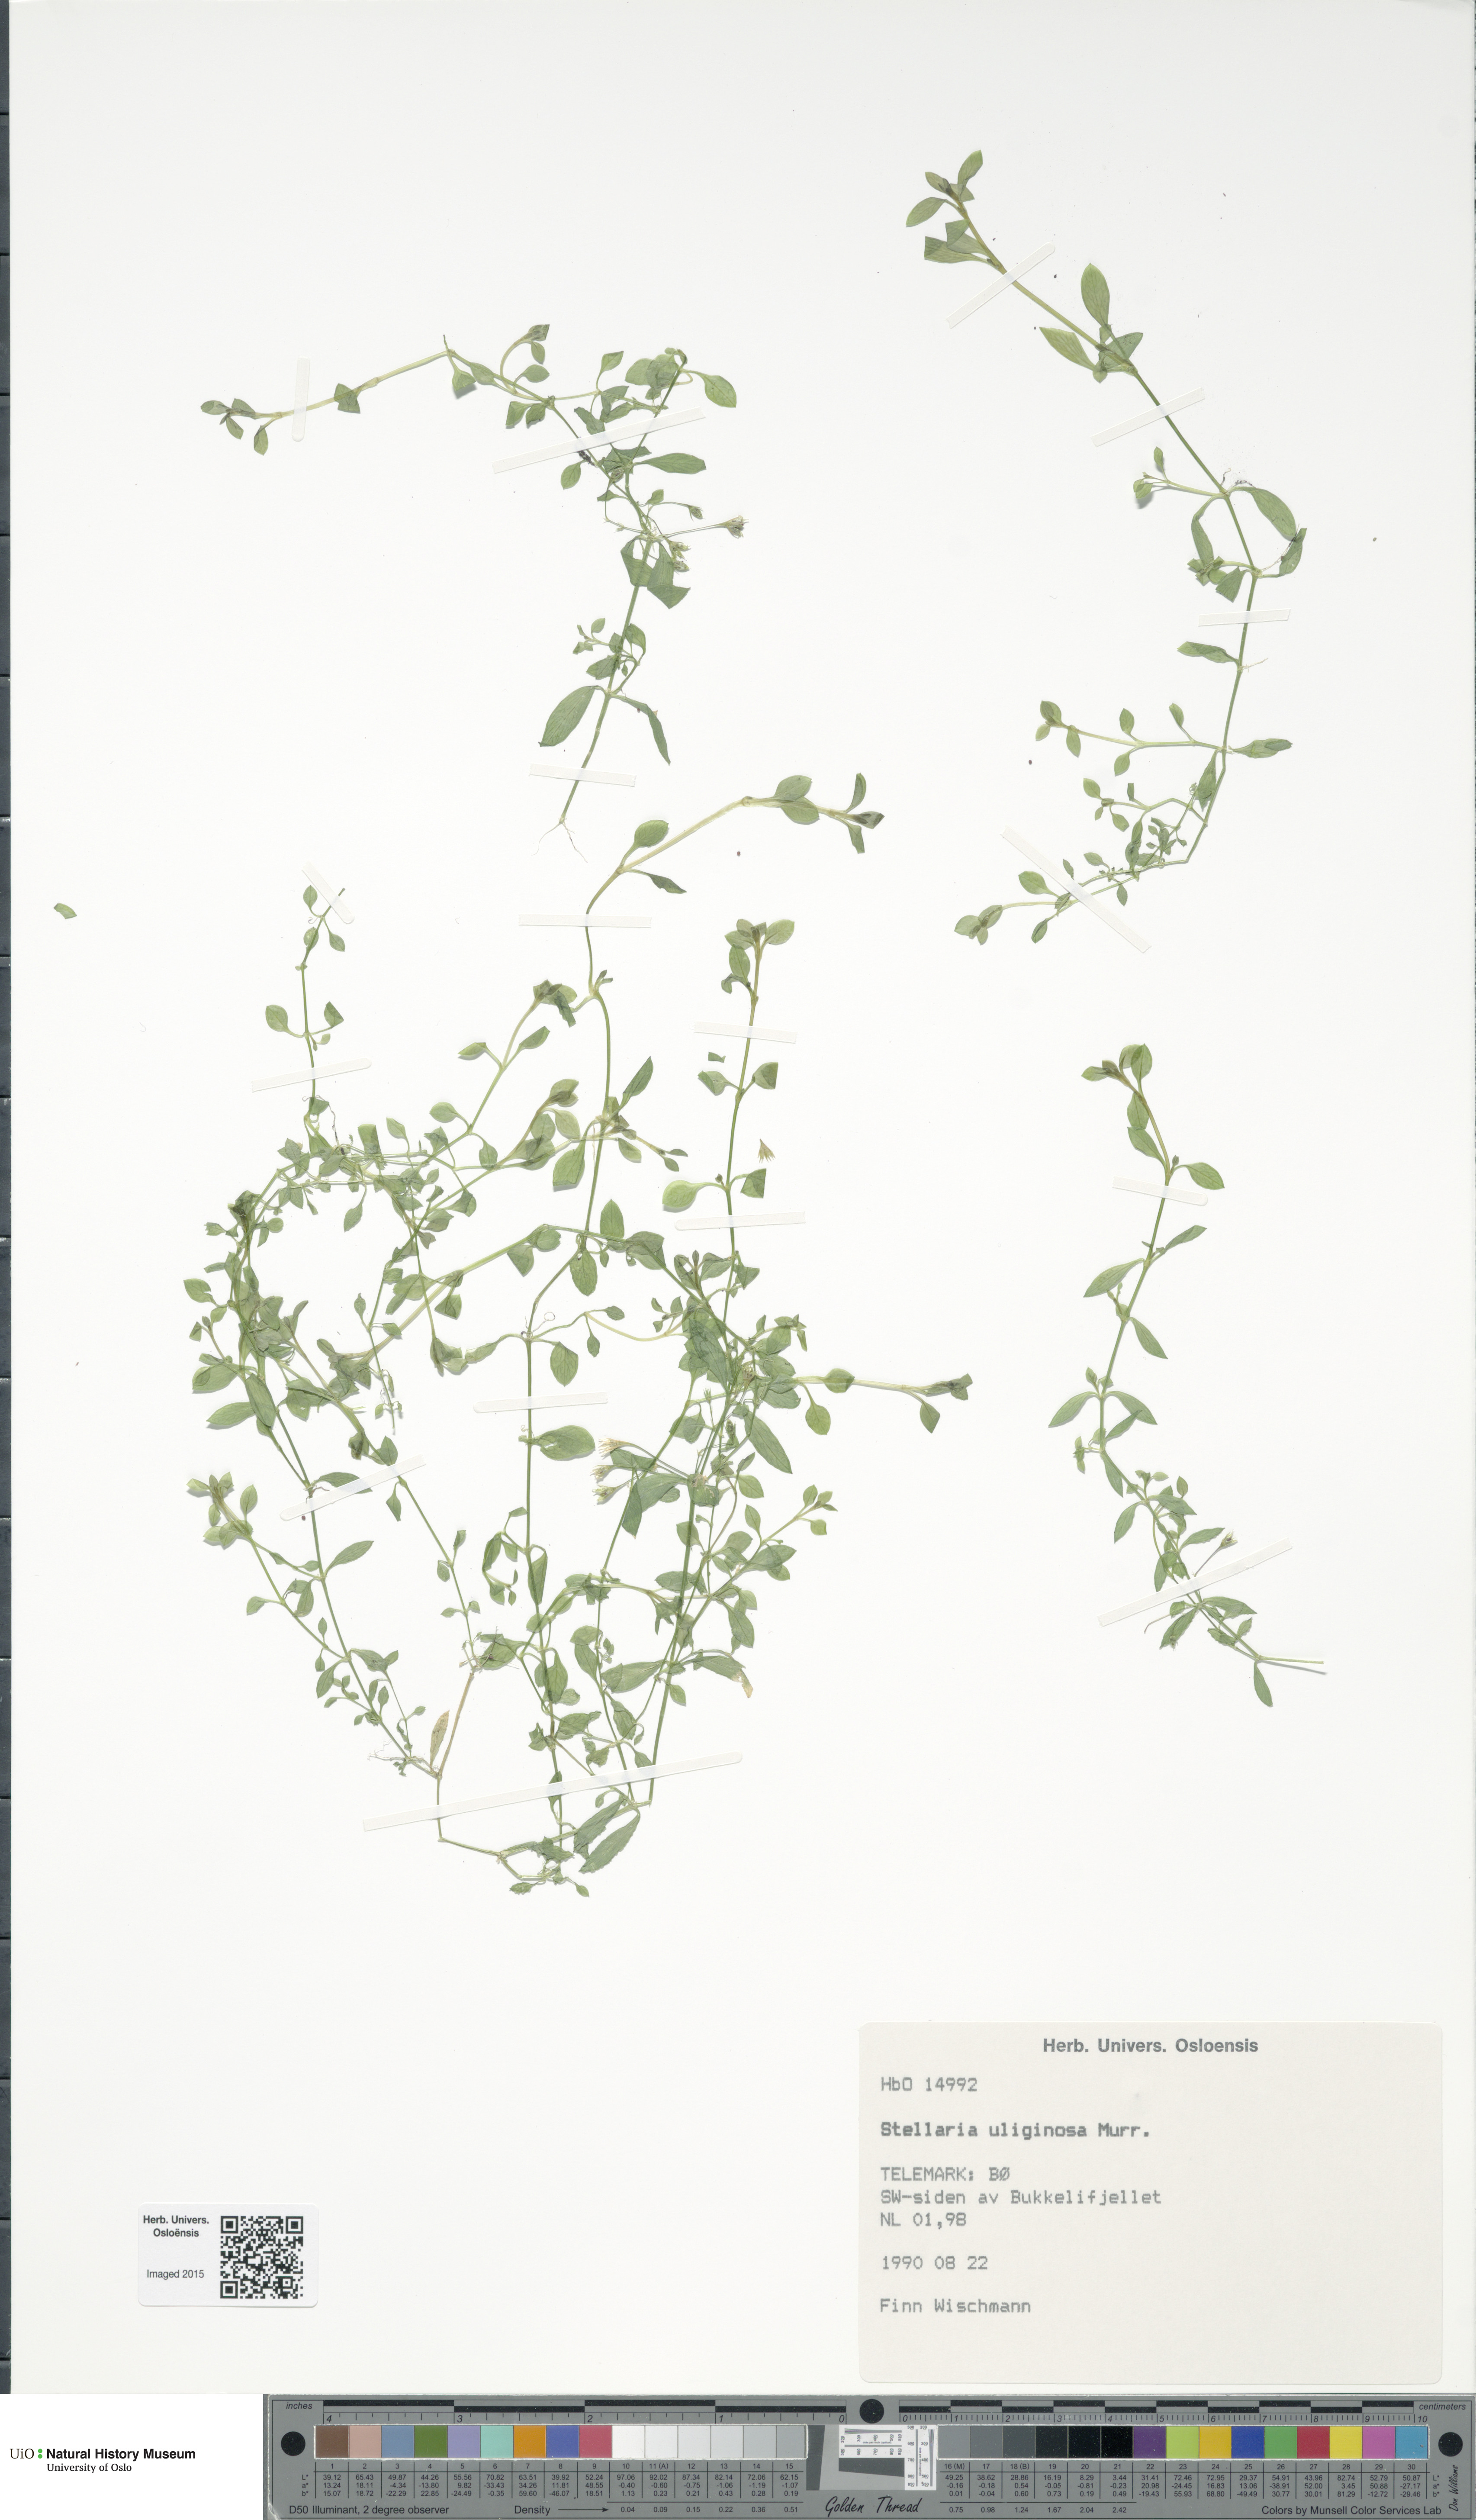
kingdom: Plantae
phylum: Tracheophyta
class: Magnoliopsida
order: Caryophyllales
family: Caryophyllaceae
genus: Stellaria
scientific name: Stellaria alsine
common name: Bog stitchwort
